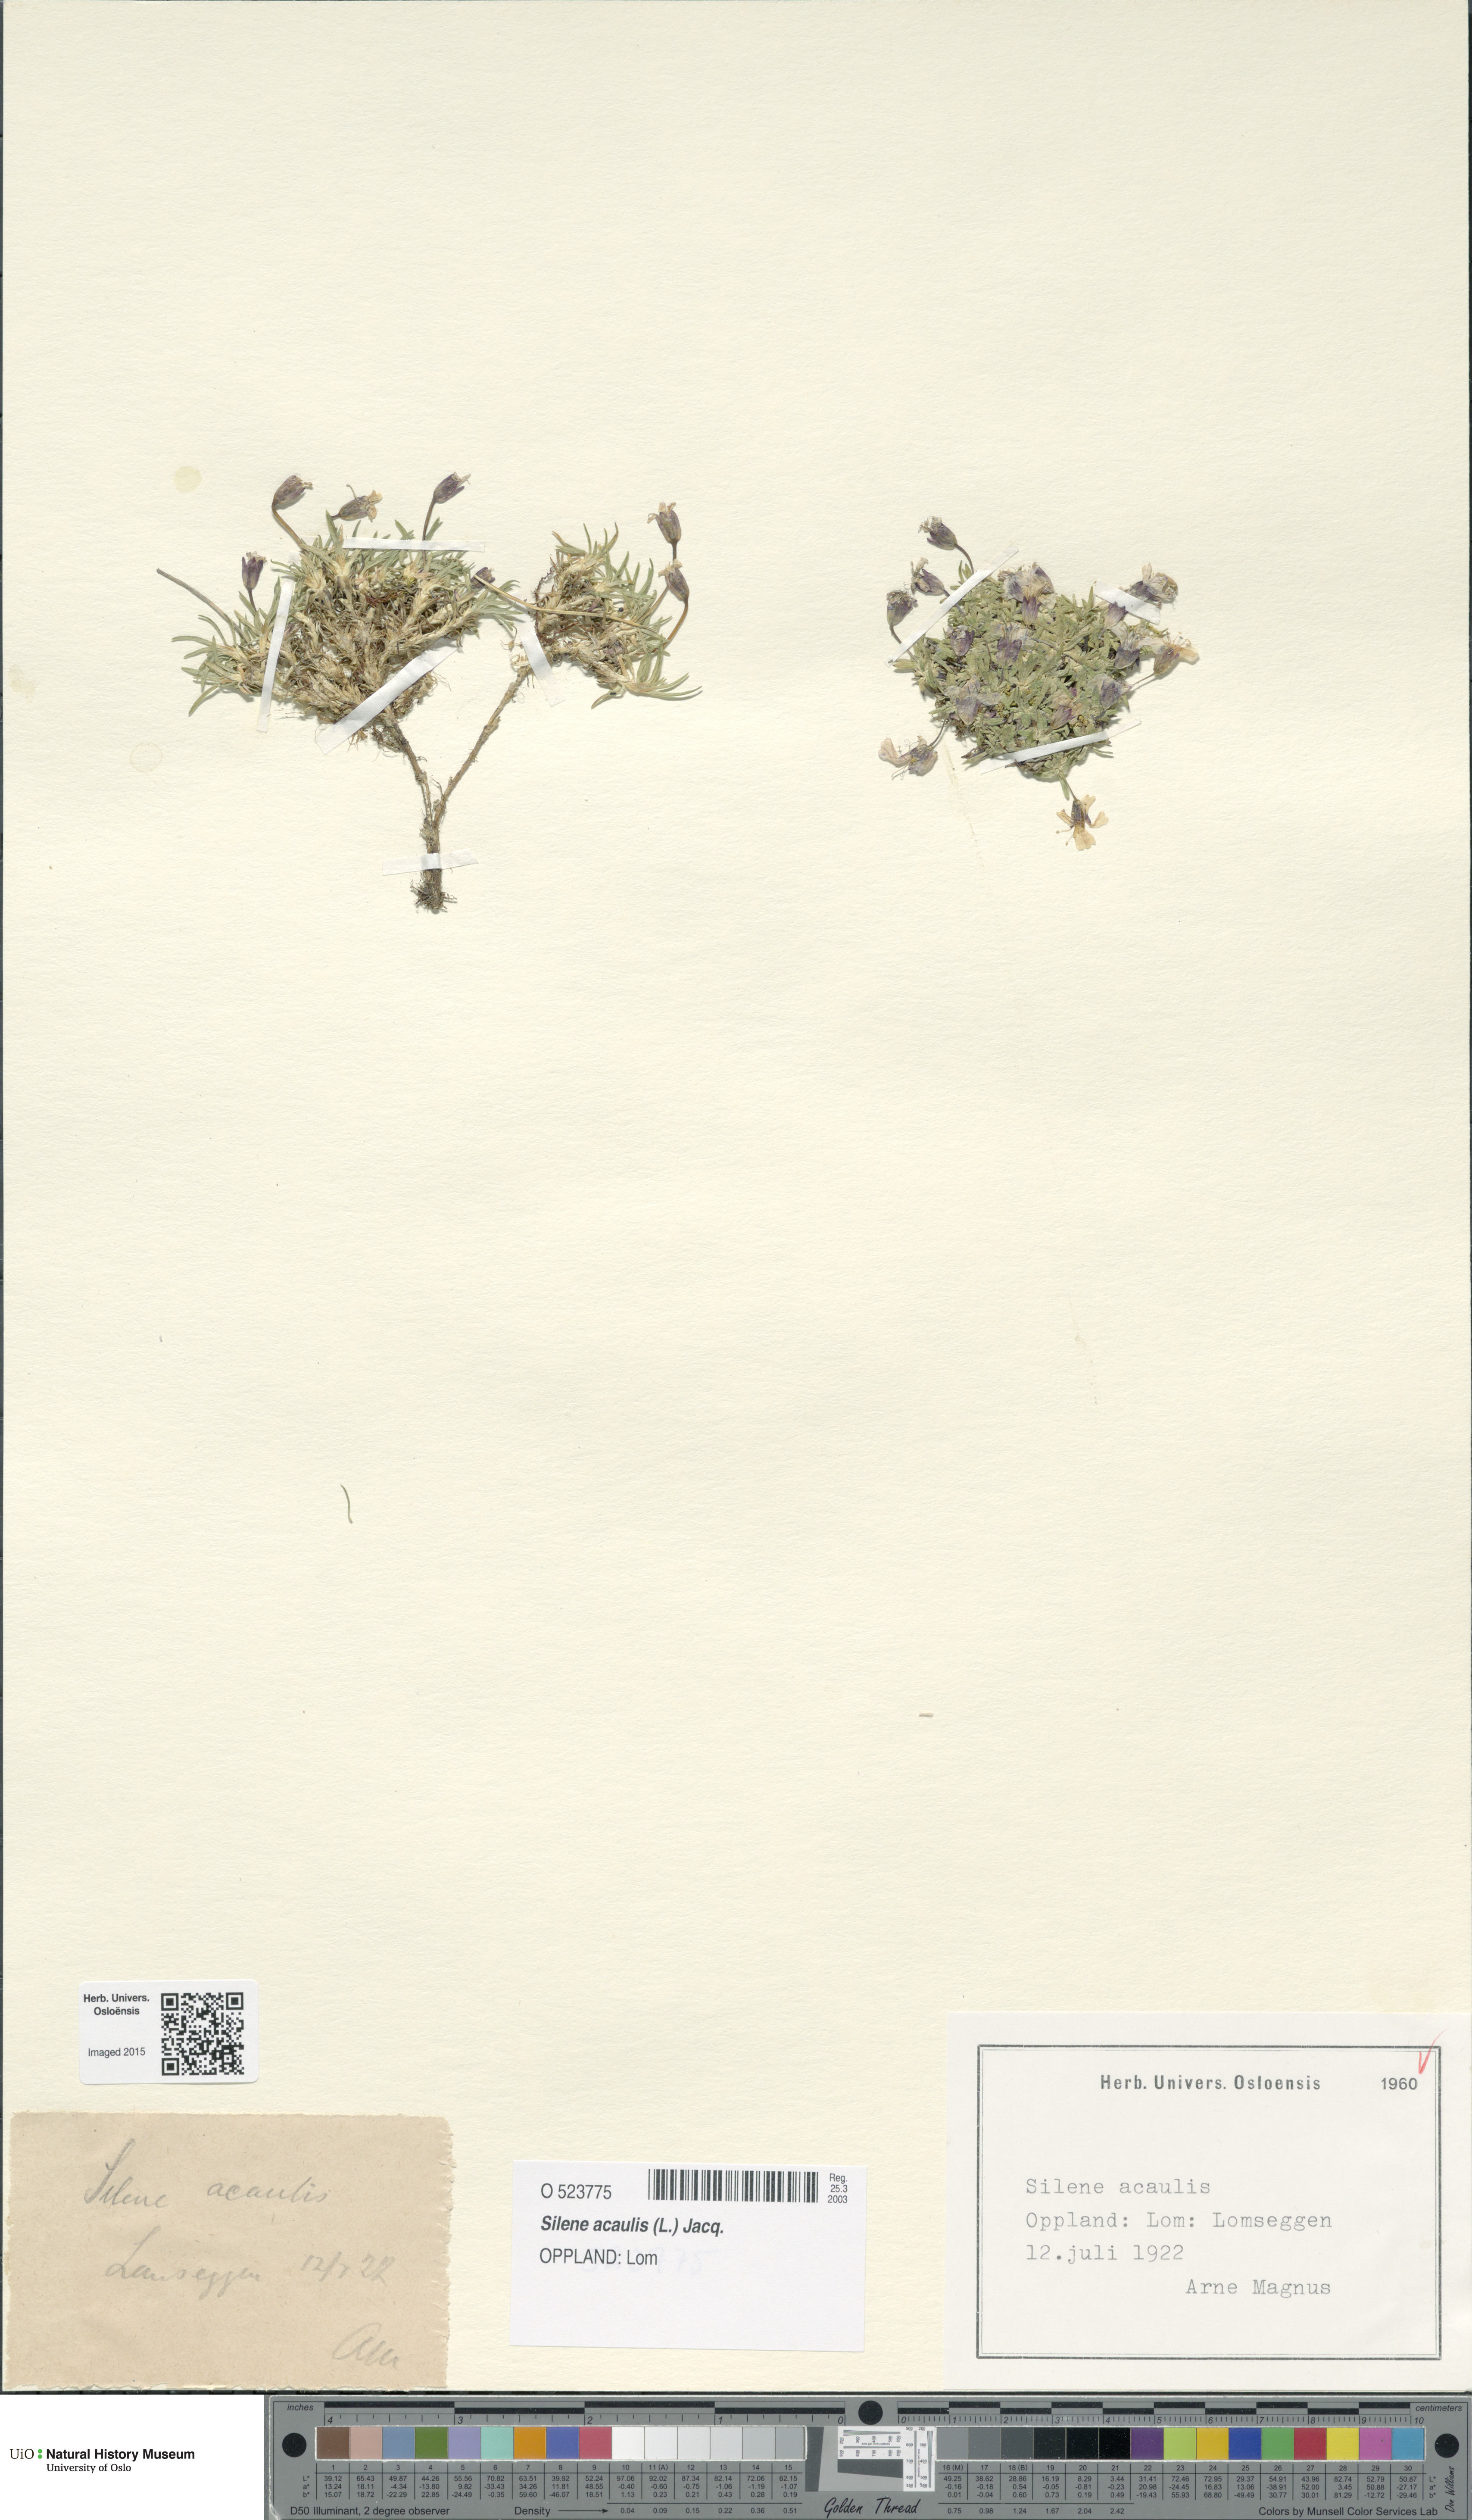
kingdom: Plantae
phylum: Tracheophyta
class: Magnoliopsida
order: Caryophyllales
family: Caryophyllaceae
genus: Silene
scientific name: Silene acaulis
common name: Moss campion
